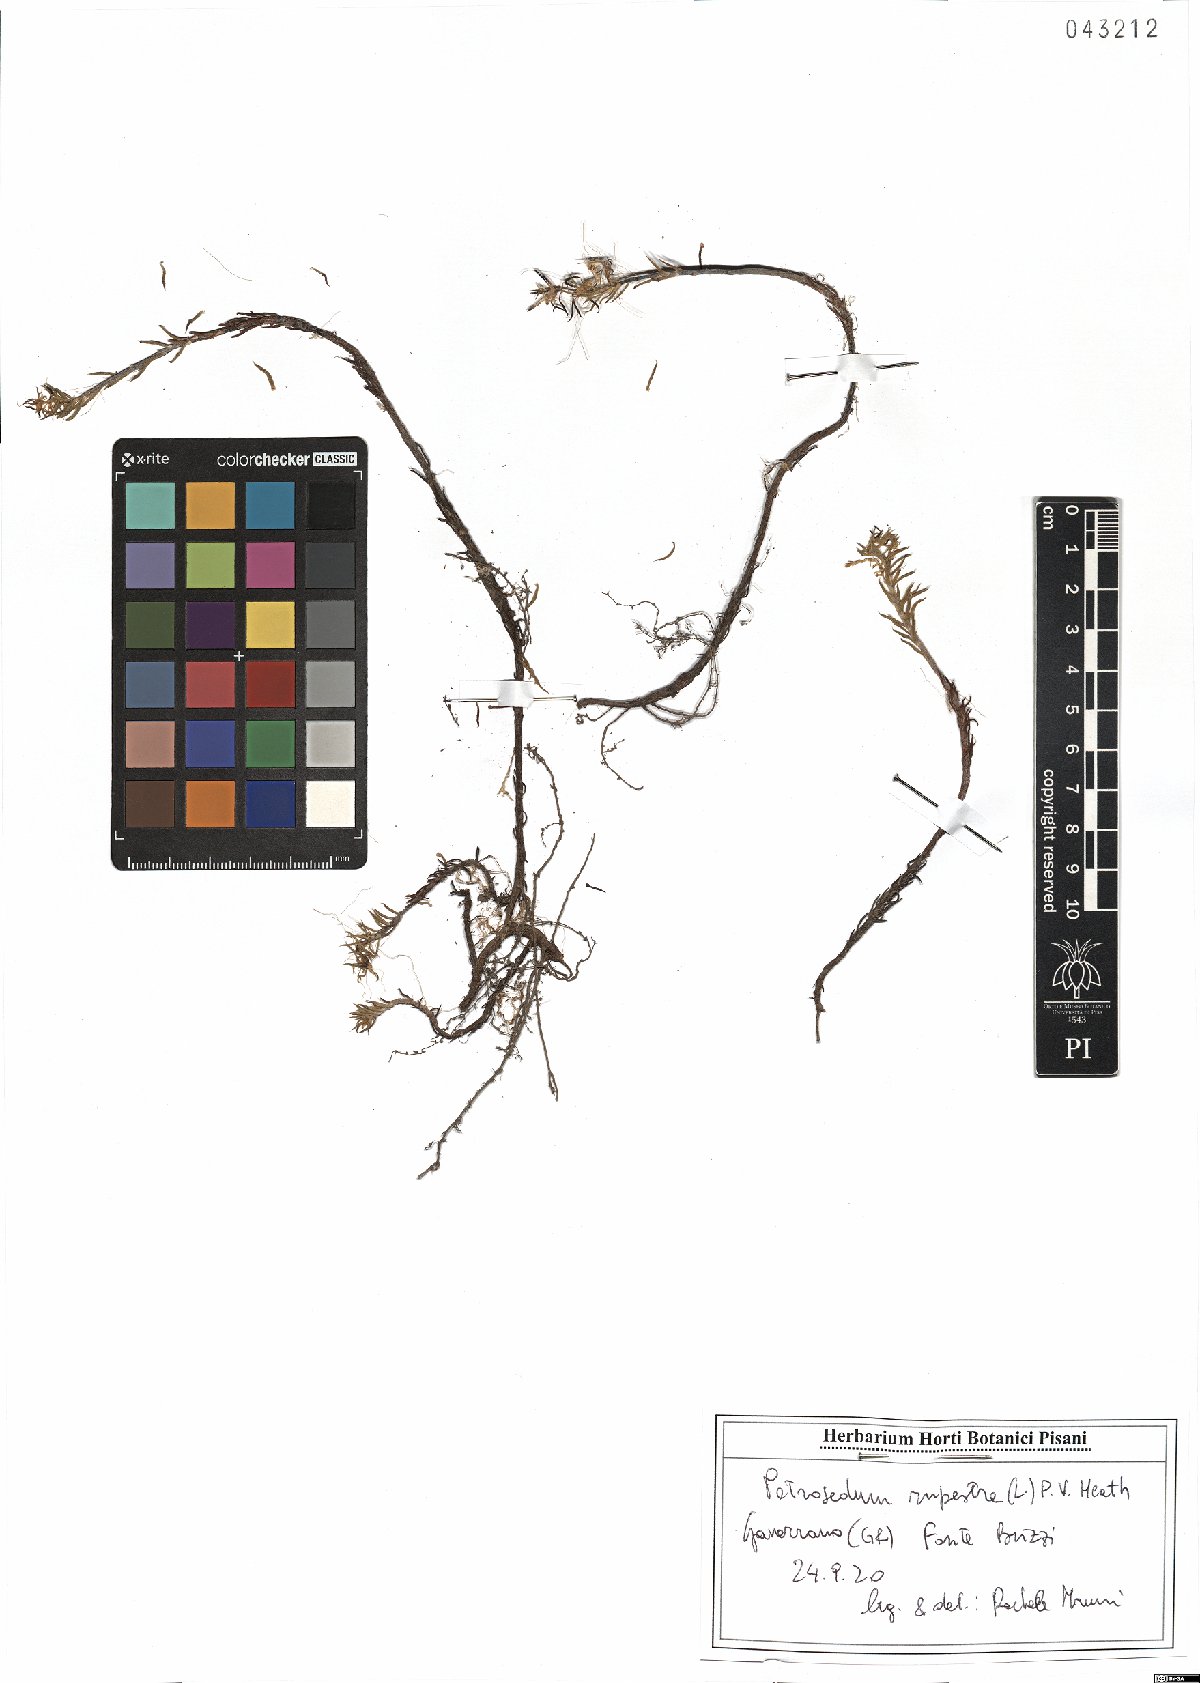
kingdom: Plantae
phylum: Tracheophyta
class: Magnoliopsida
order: Saxifragales
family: Crassulaceae
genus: Petrosedum
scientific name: Petrosedum rupestre
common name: Jenny's stonecrop
